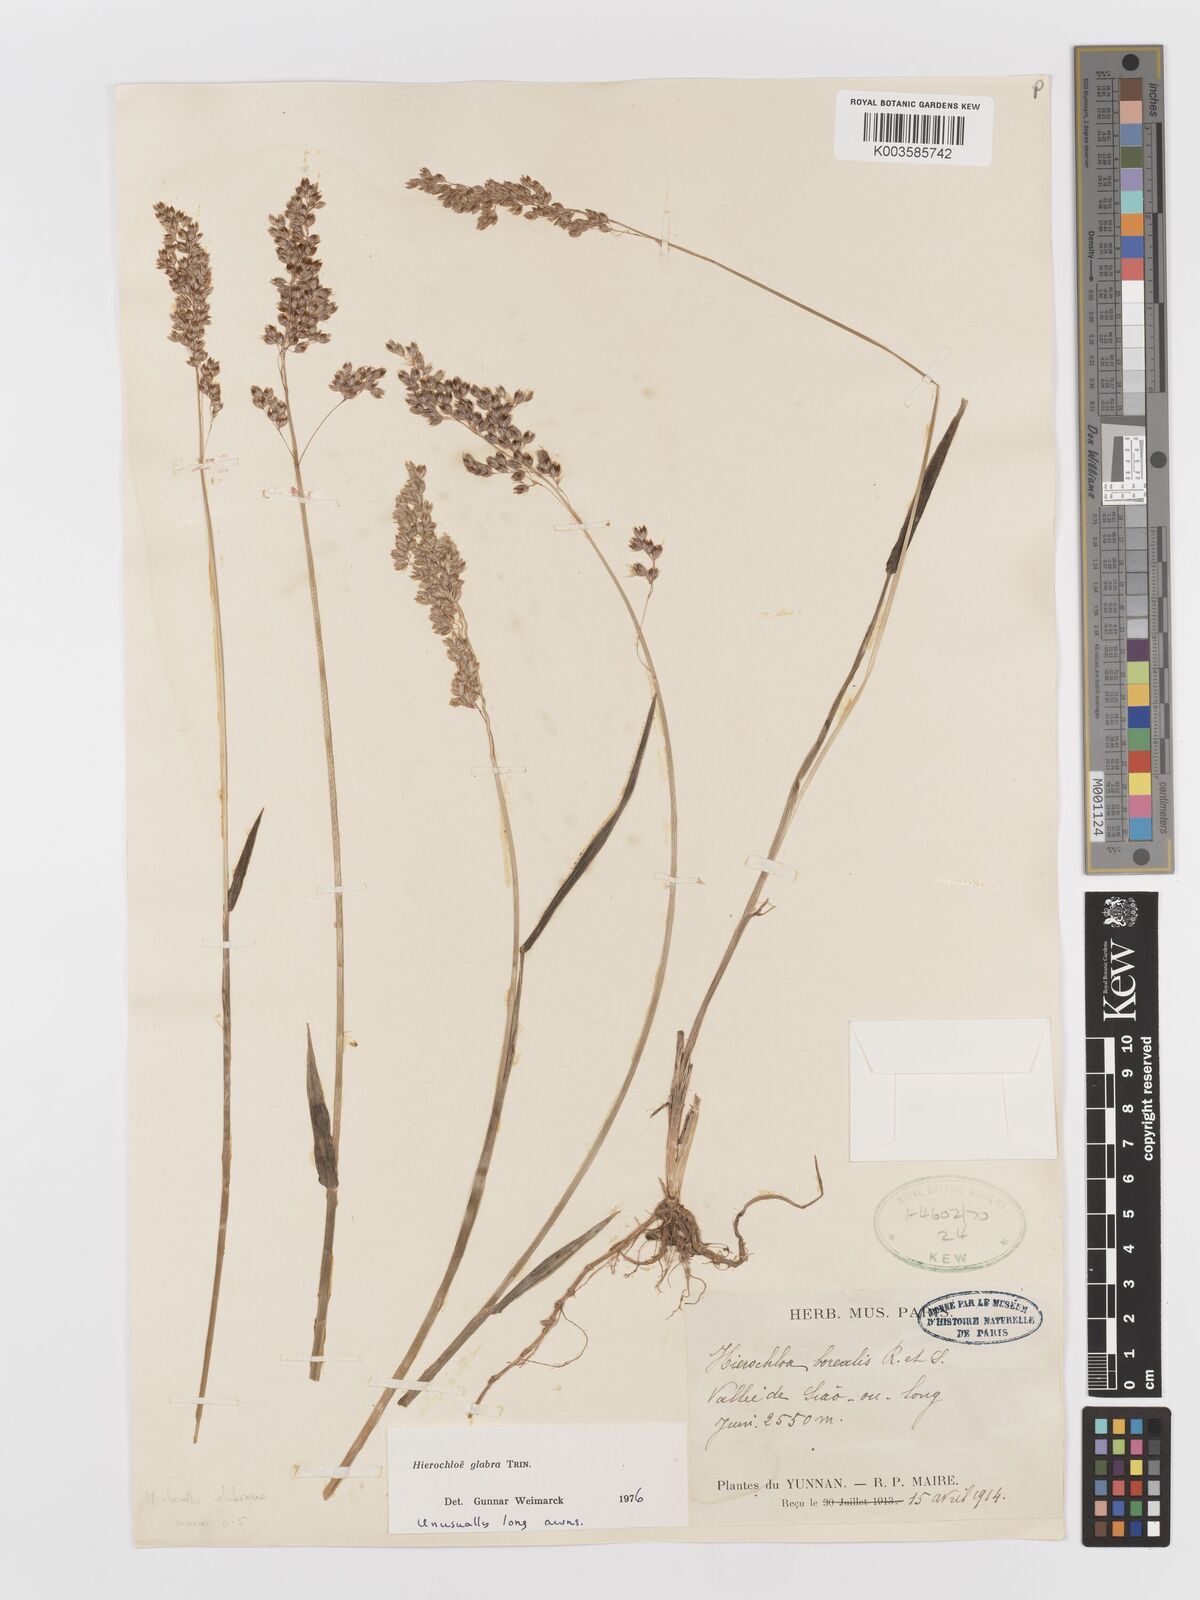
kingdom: Plantae
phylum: Tracheophyta
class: Liliopsida
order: Poales
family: Poaceae
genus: Anthoxanthum
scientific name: Anthoxanthum glabrum
